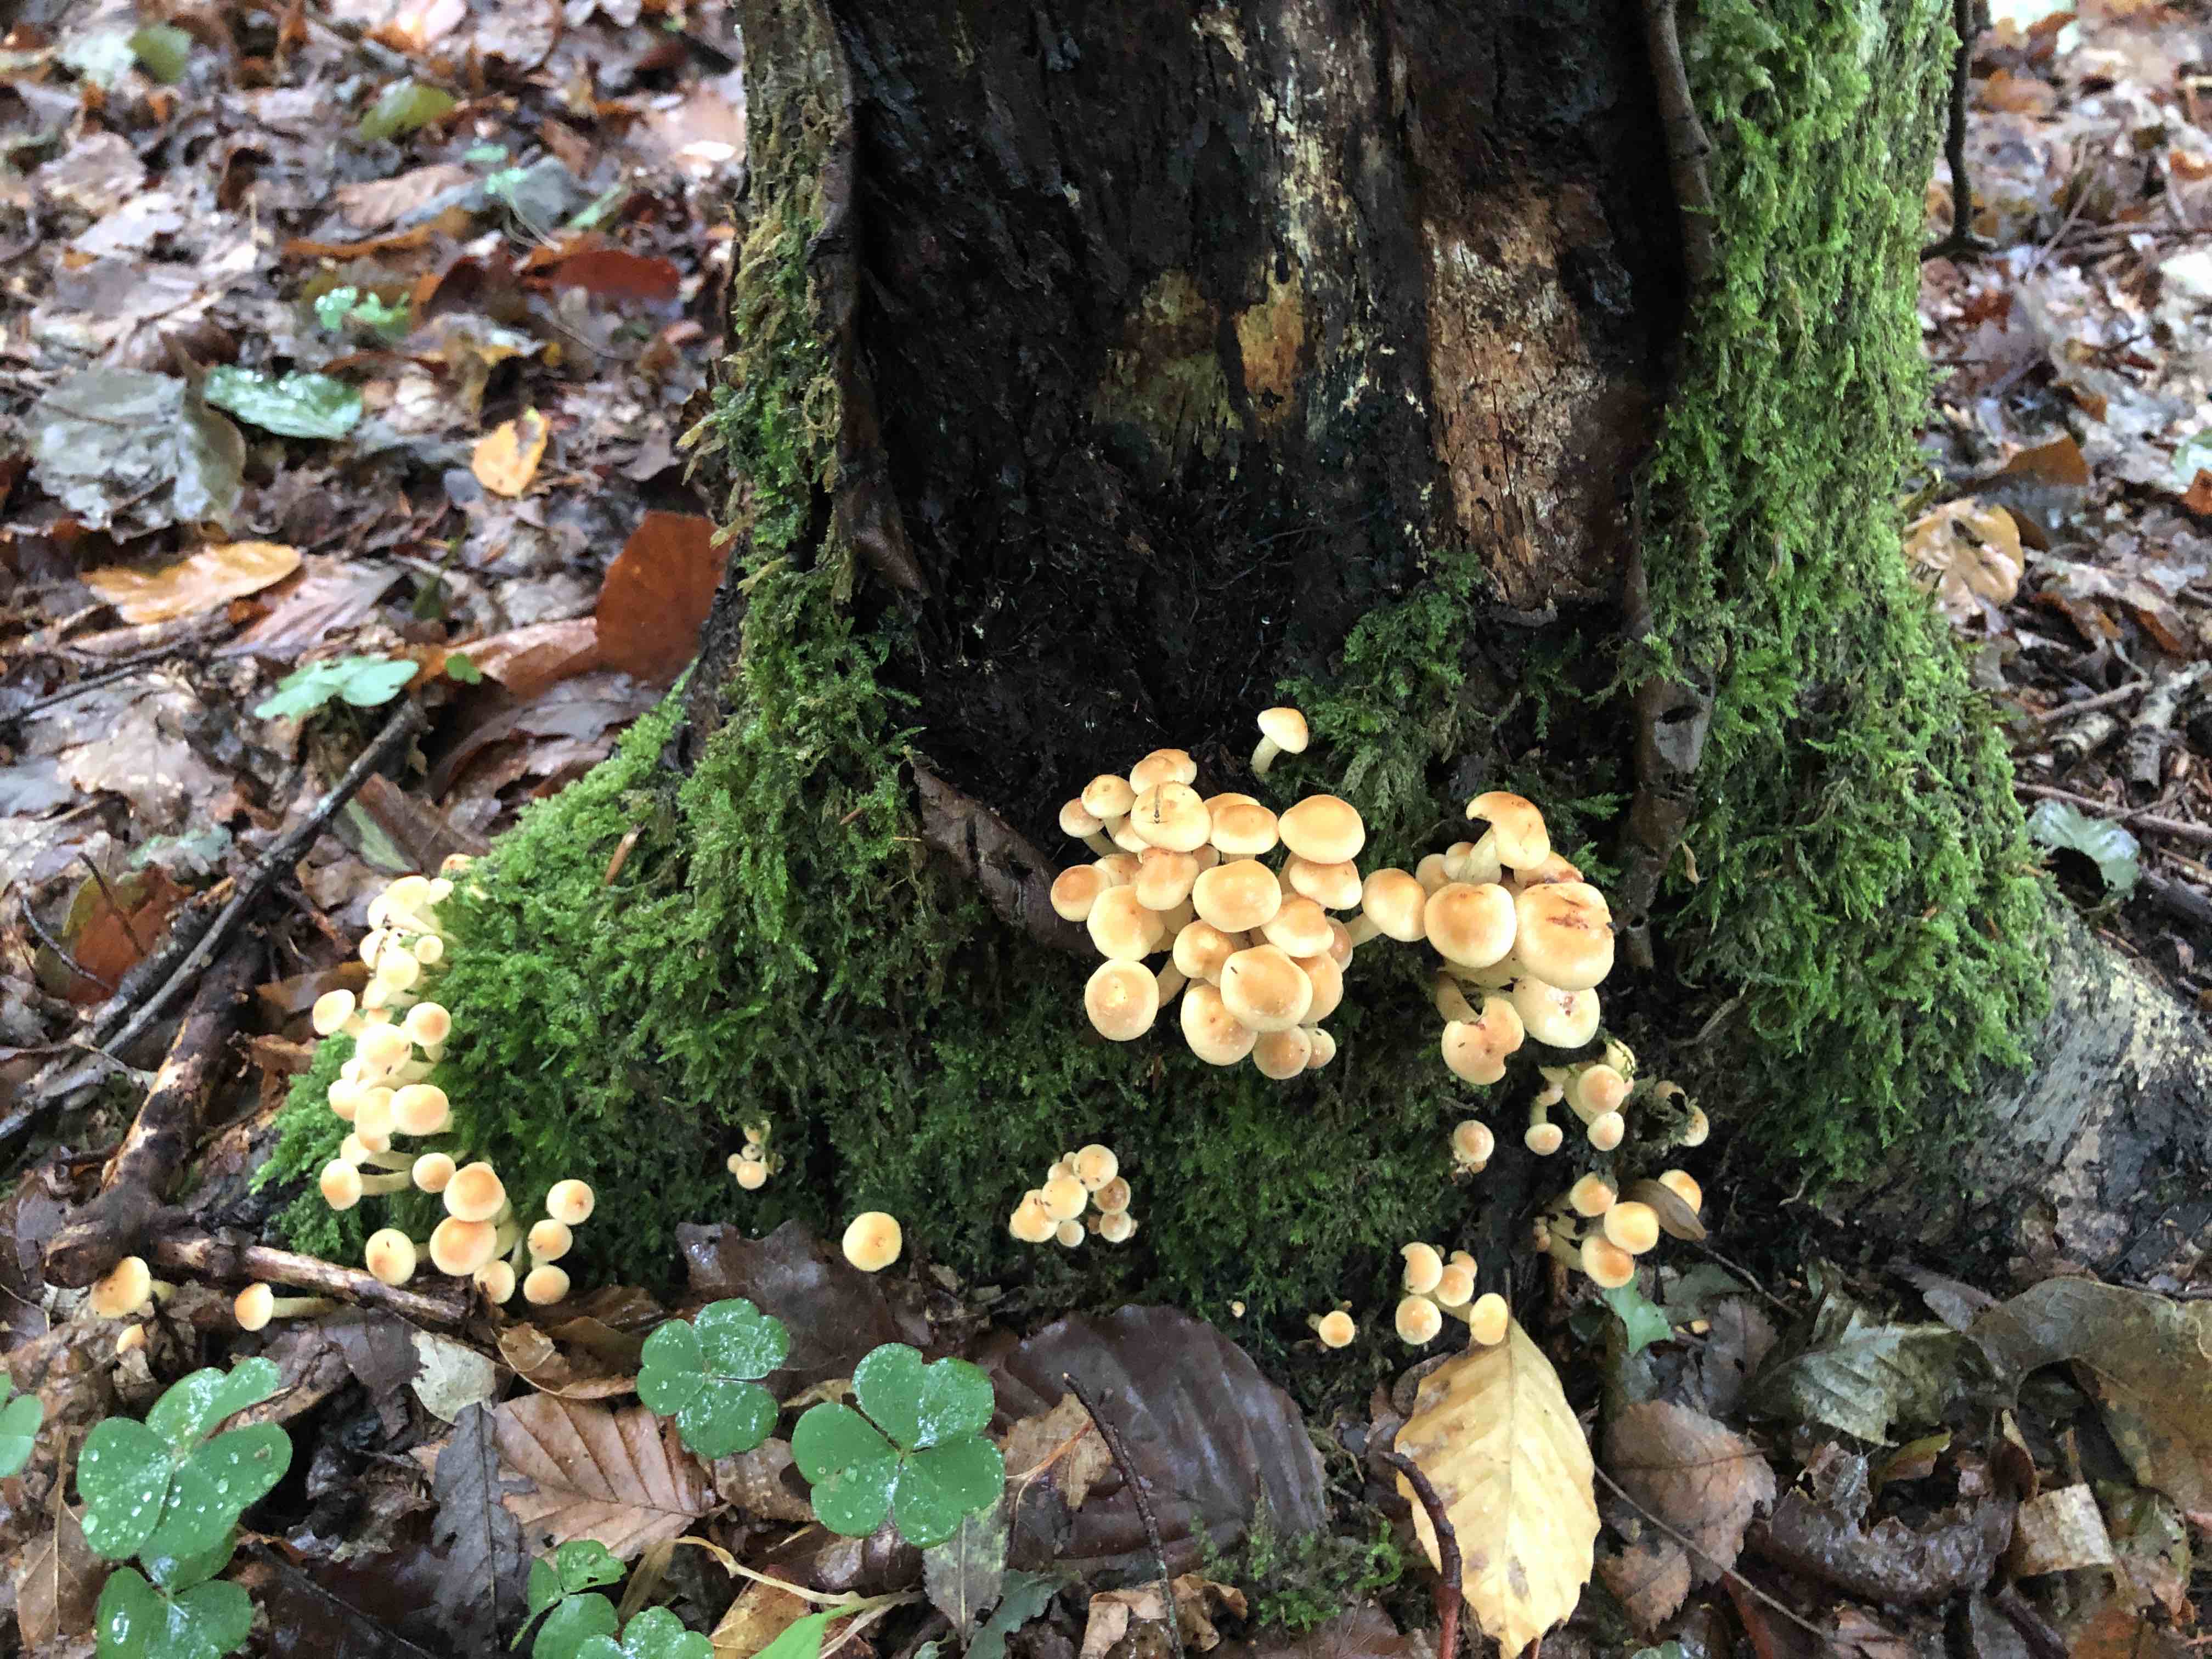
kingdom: Fungi
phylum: Basidiomycota
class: Agaricomycetes
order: Agaricales
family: Strophariaceae
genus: Hypholoma
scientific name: Hypholoma fasciculare
